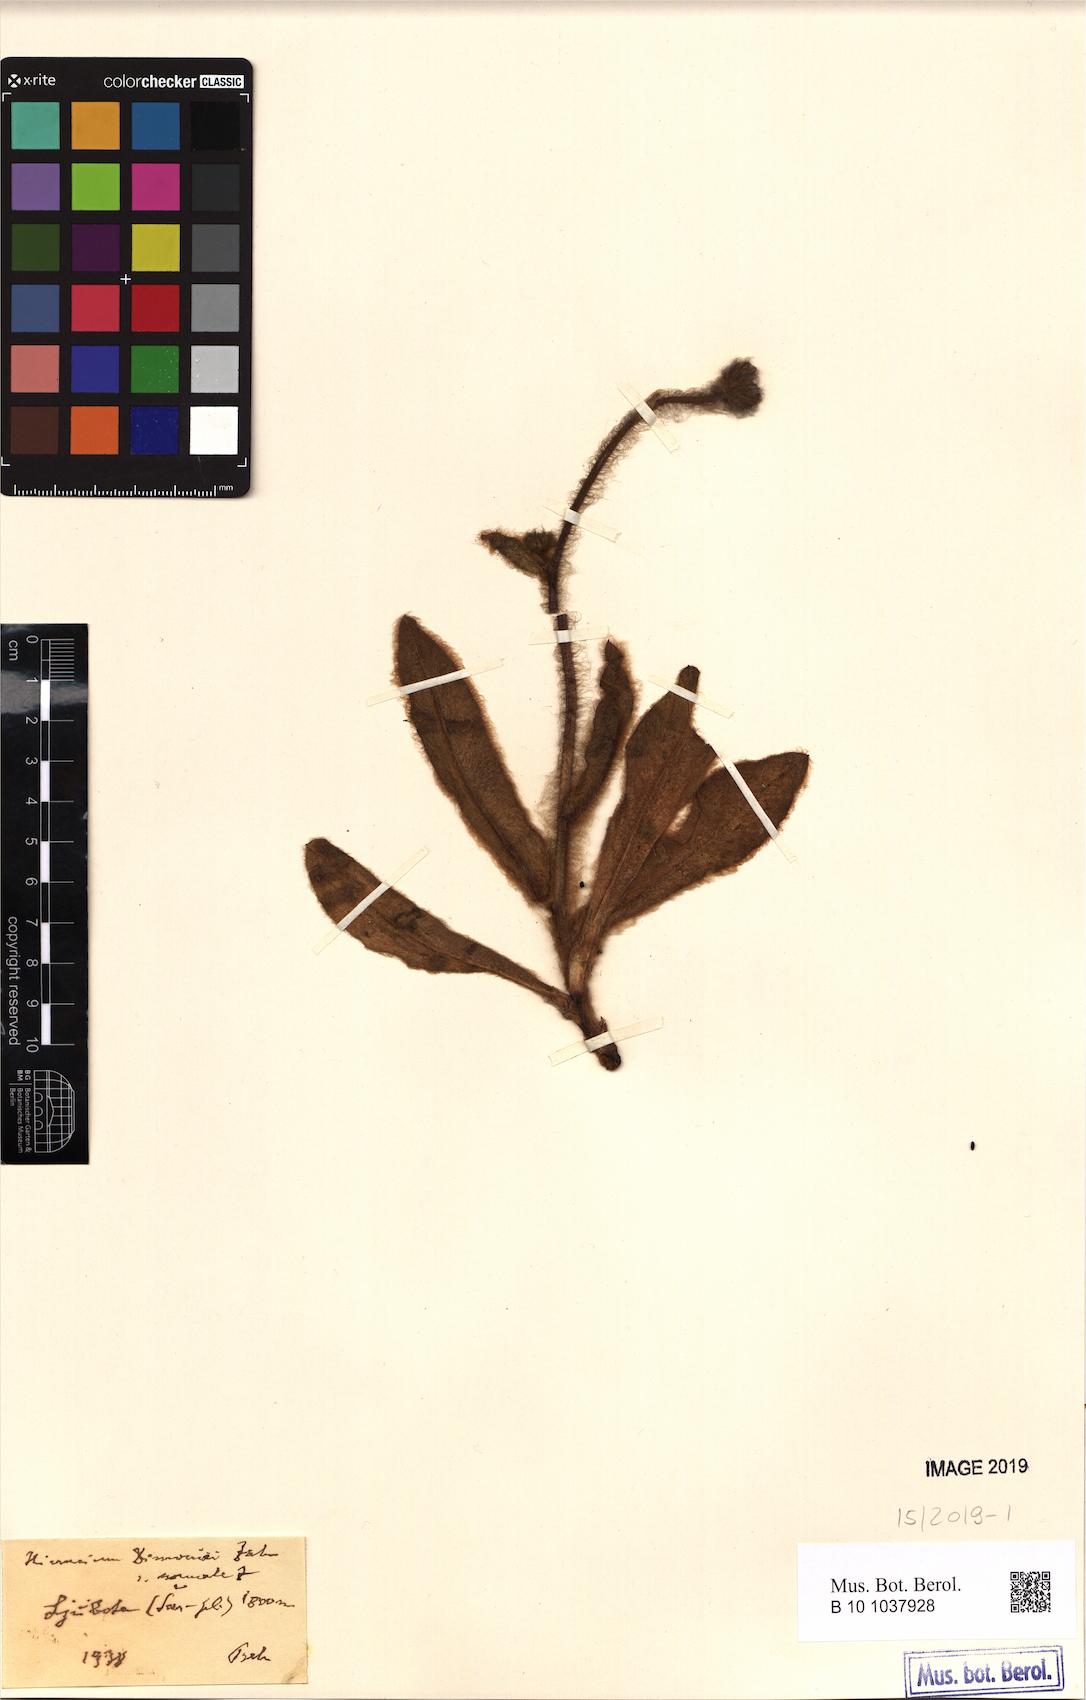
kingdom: Plantae
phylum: Tracheophyta
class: Magnoliopsida
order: Asterales
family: Asteraceae
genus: Hieracium
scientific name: Hieracium dimoniei
